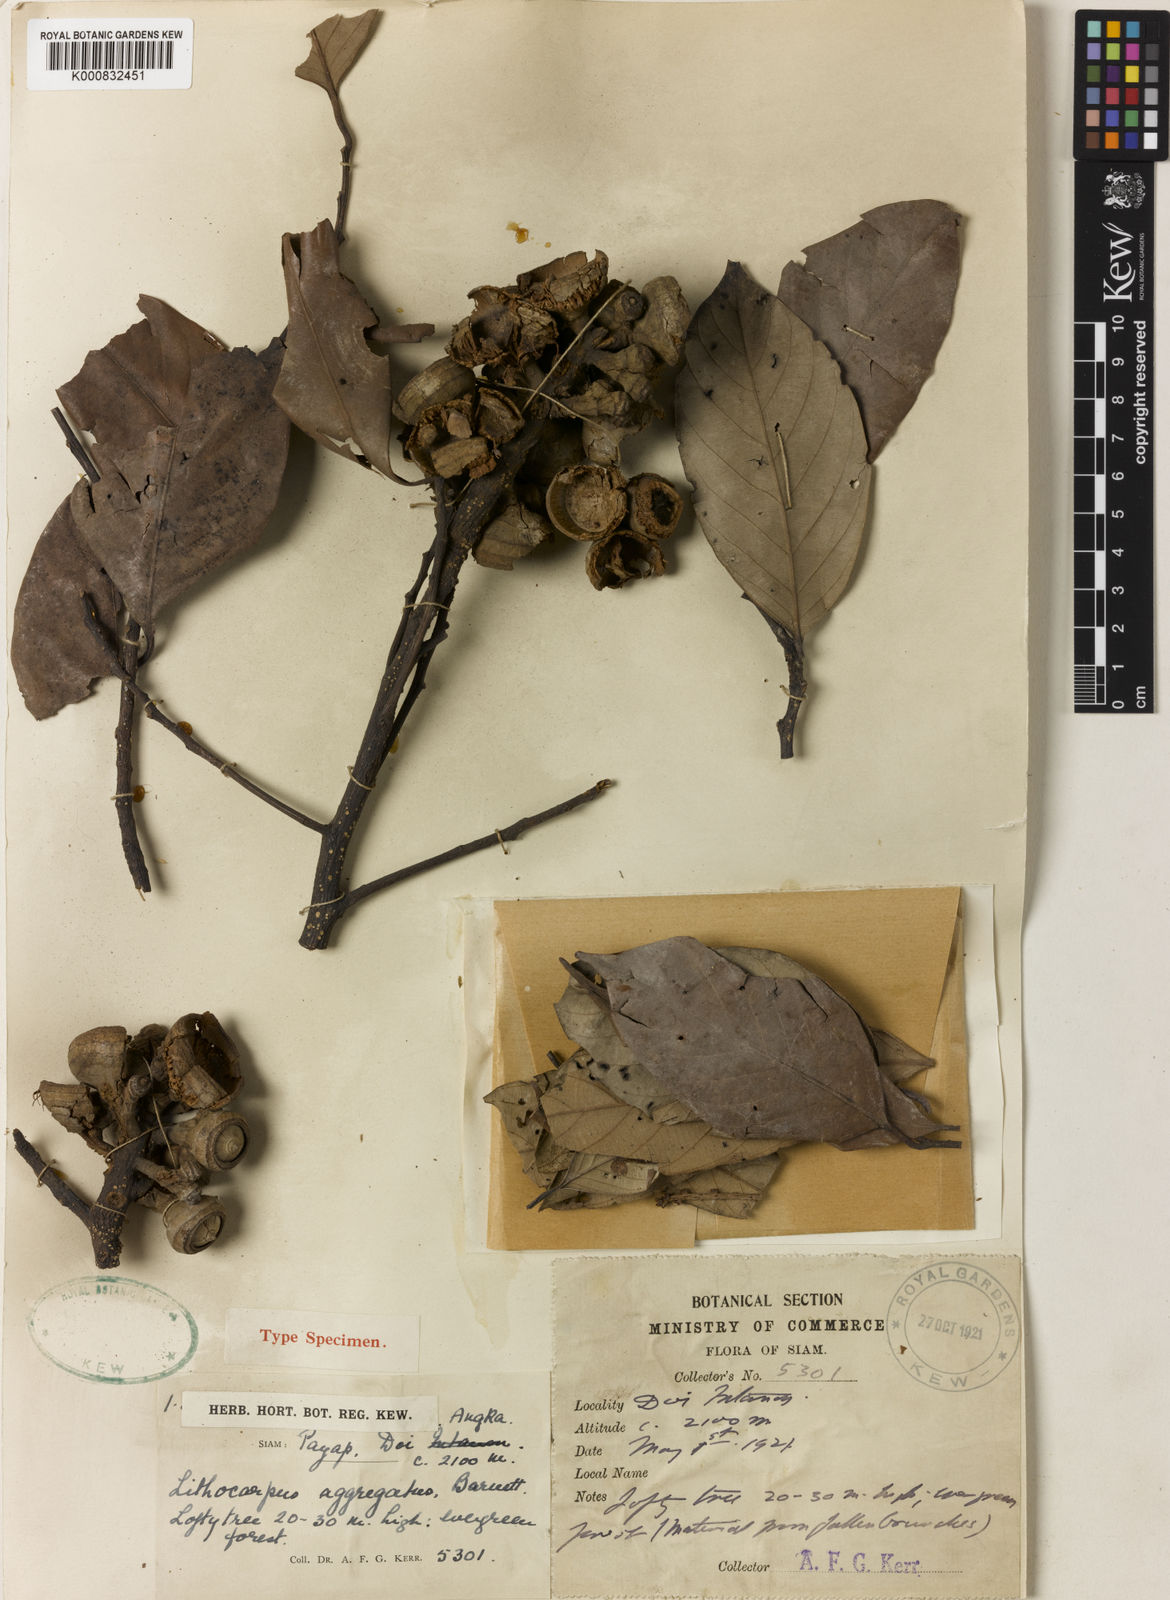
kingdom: Plantae
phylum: Tracheophyta
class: Magnoliopsida
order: Fagales
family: Fagaceae
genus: Lithocarpus
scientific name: Lithocarpus aggregatus
